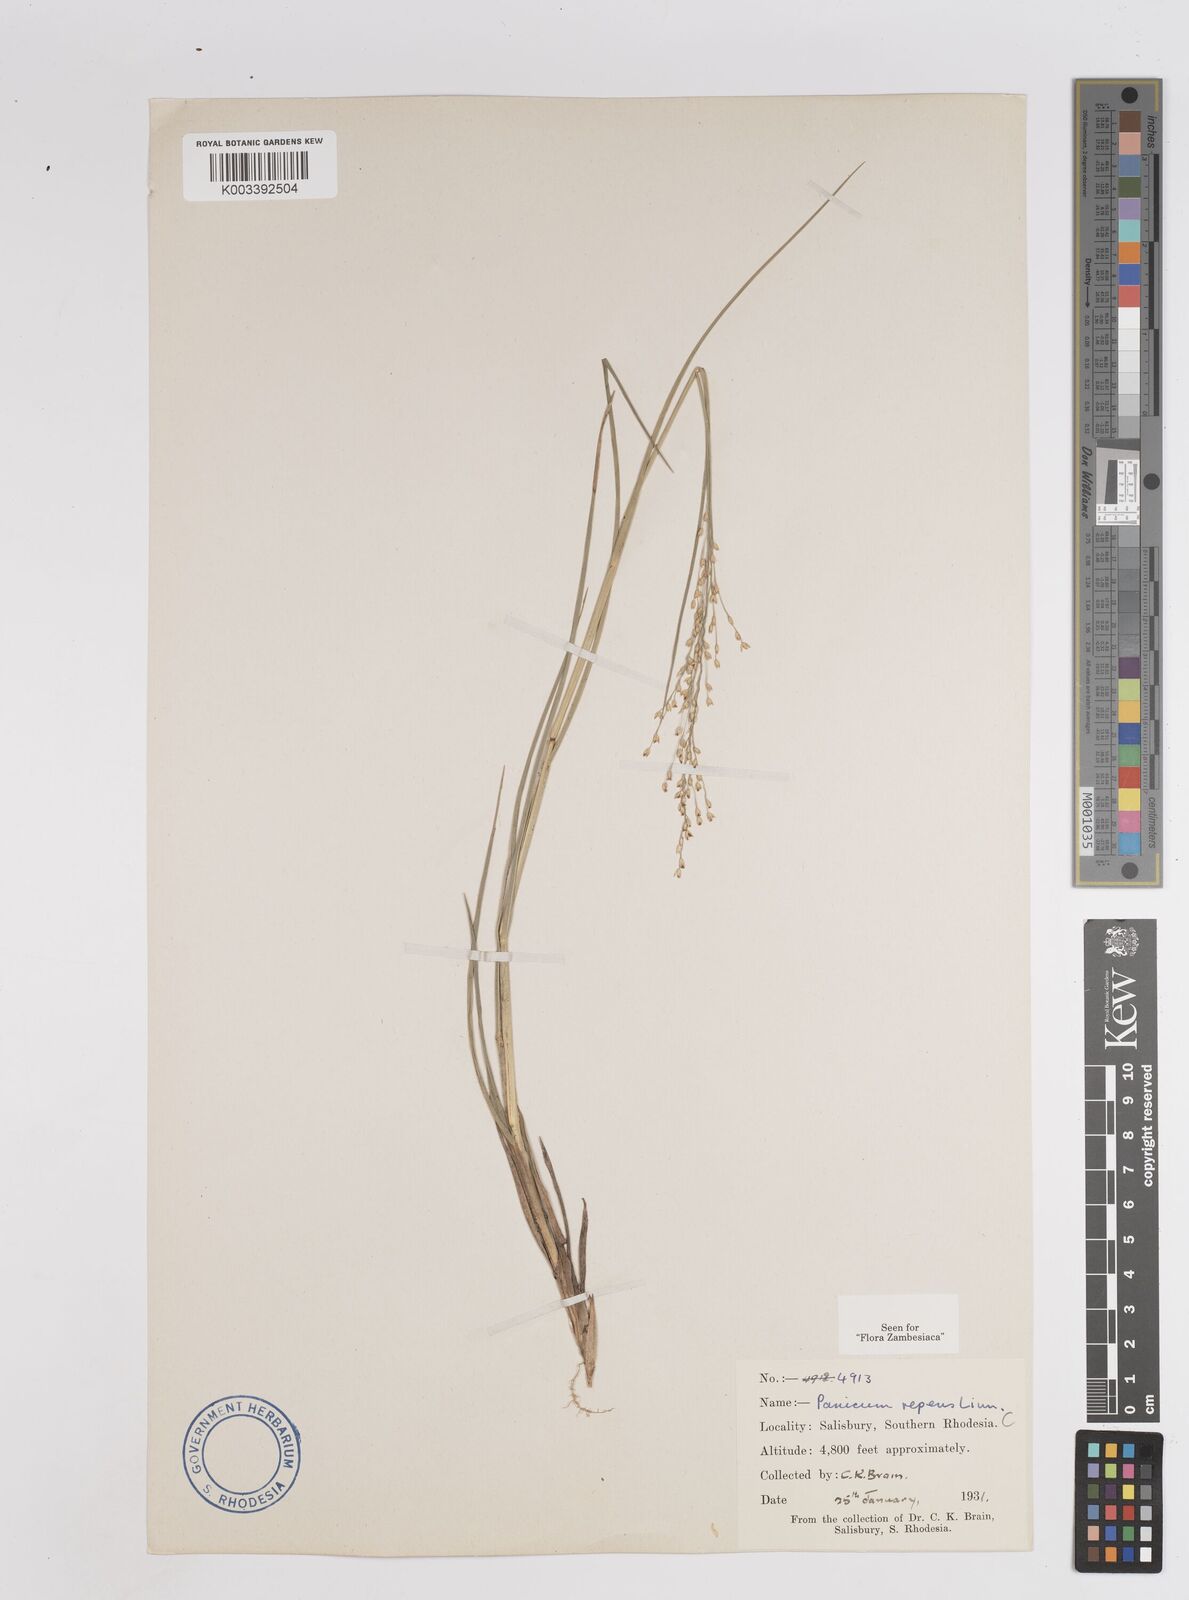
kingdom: Plantae
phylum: Tracheophyta
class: Liliopsida
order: Poales
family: Poaceae
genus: Panicum
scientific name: Panicum repens
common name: Torpedo grass
